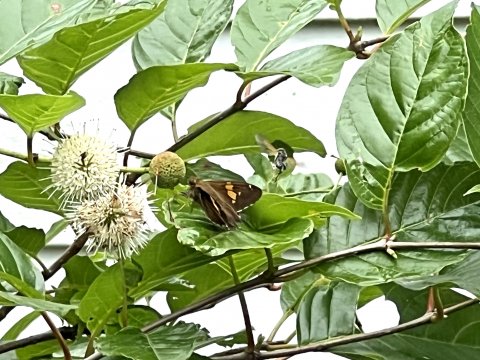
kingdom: Animalia
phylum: Arthropoda
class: Insecta
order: Lepidoptera
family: Hesperiidae
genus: Epargyreus
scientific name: Epargyreus clarus
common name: Silver-spotted Skipper
